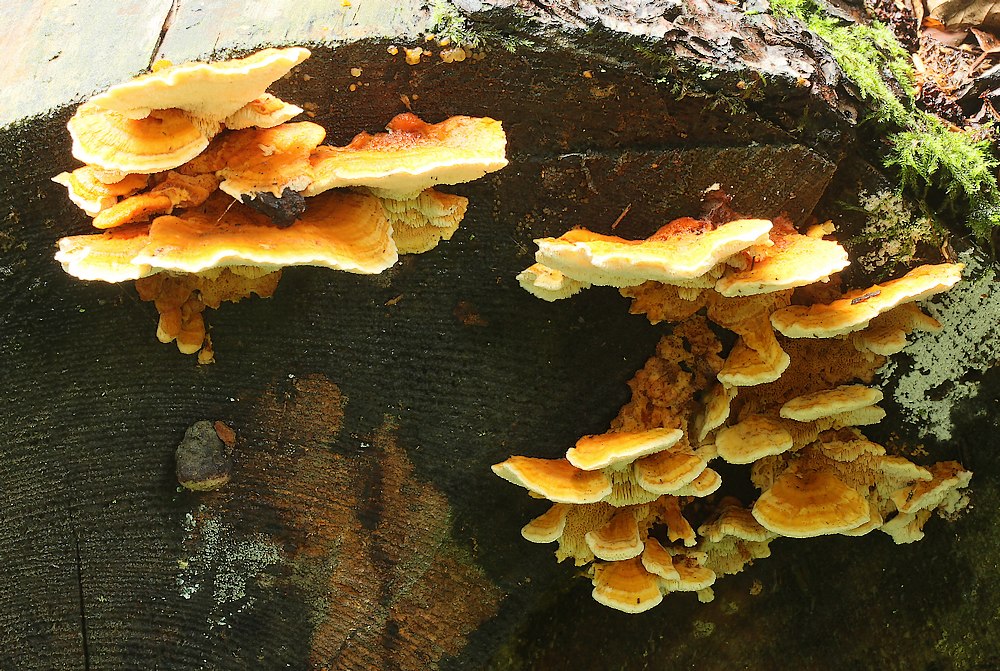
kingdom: Fungi
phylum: Basidiomycota
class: Agaricomycetes
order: Polyporales
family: Pycnoporellaceae
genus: Pycnoporellus
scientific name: Pycnoporellus fulgens
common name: flammeporesvamp
